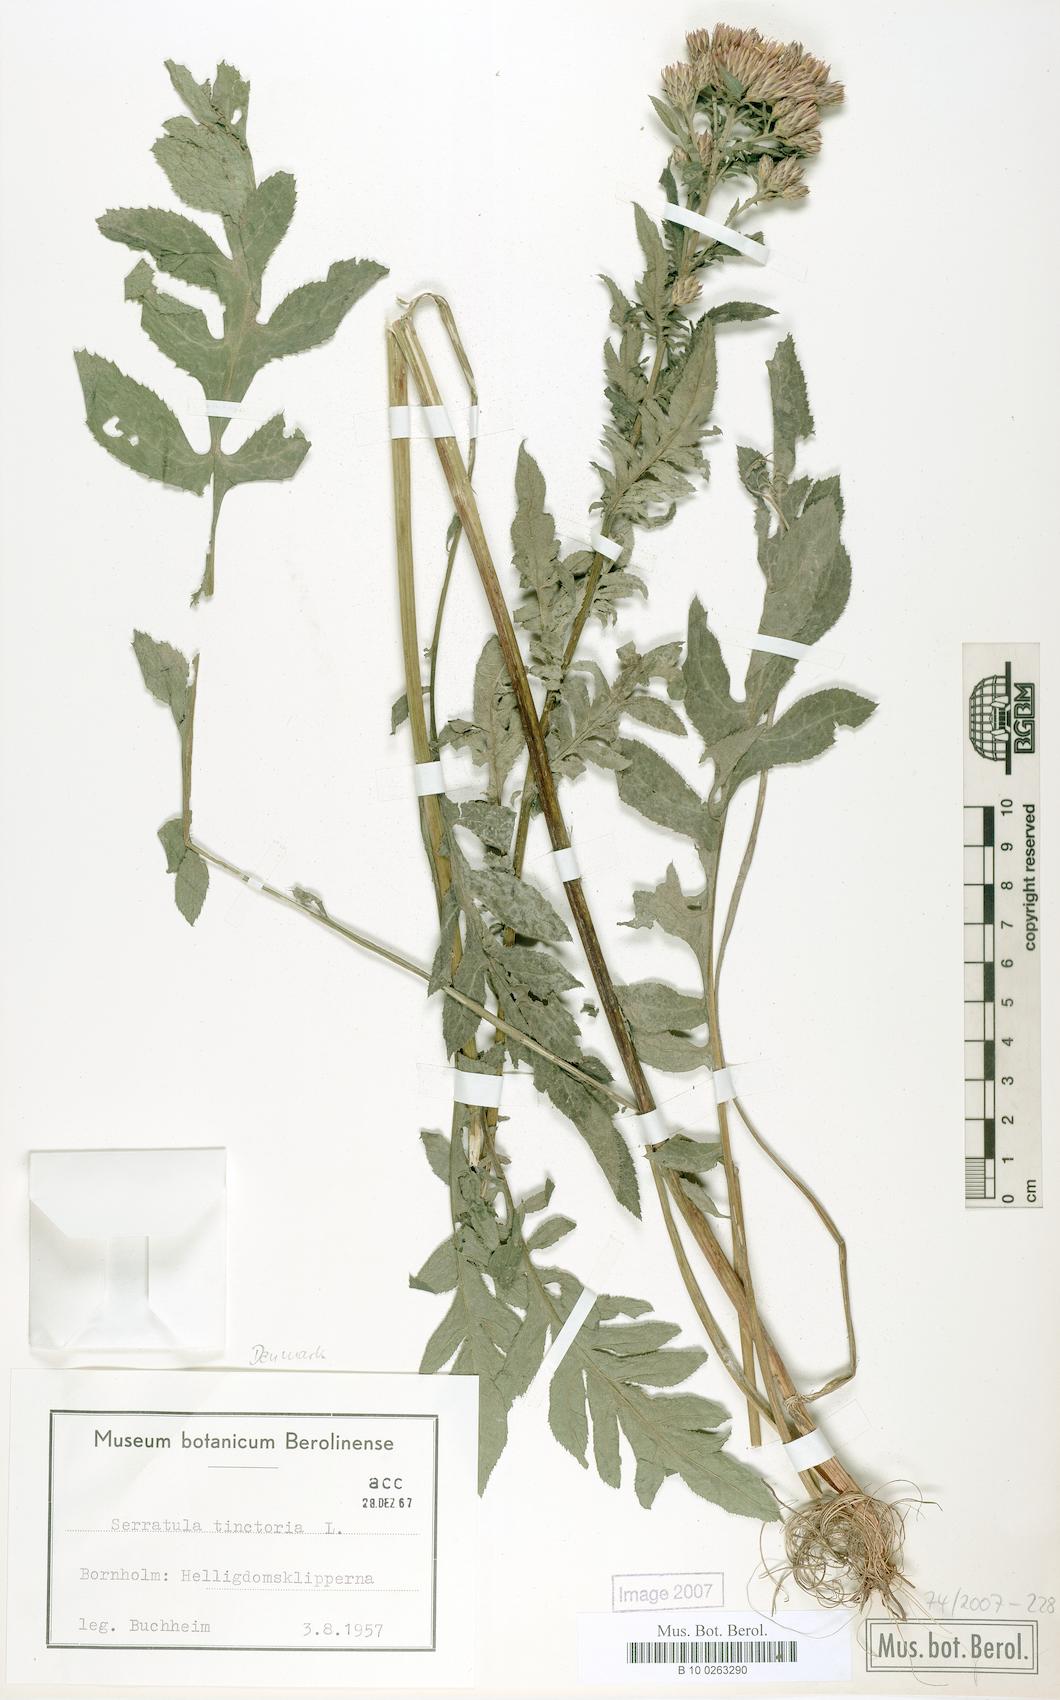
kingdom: Plantae
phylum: Tracheophyta
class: Magnoliopsida
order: Asterales
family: Asteraceae
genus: Serratula
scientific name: Serratula tinctoria
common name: Saw-wort
